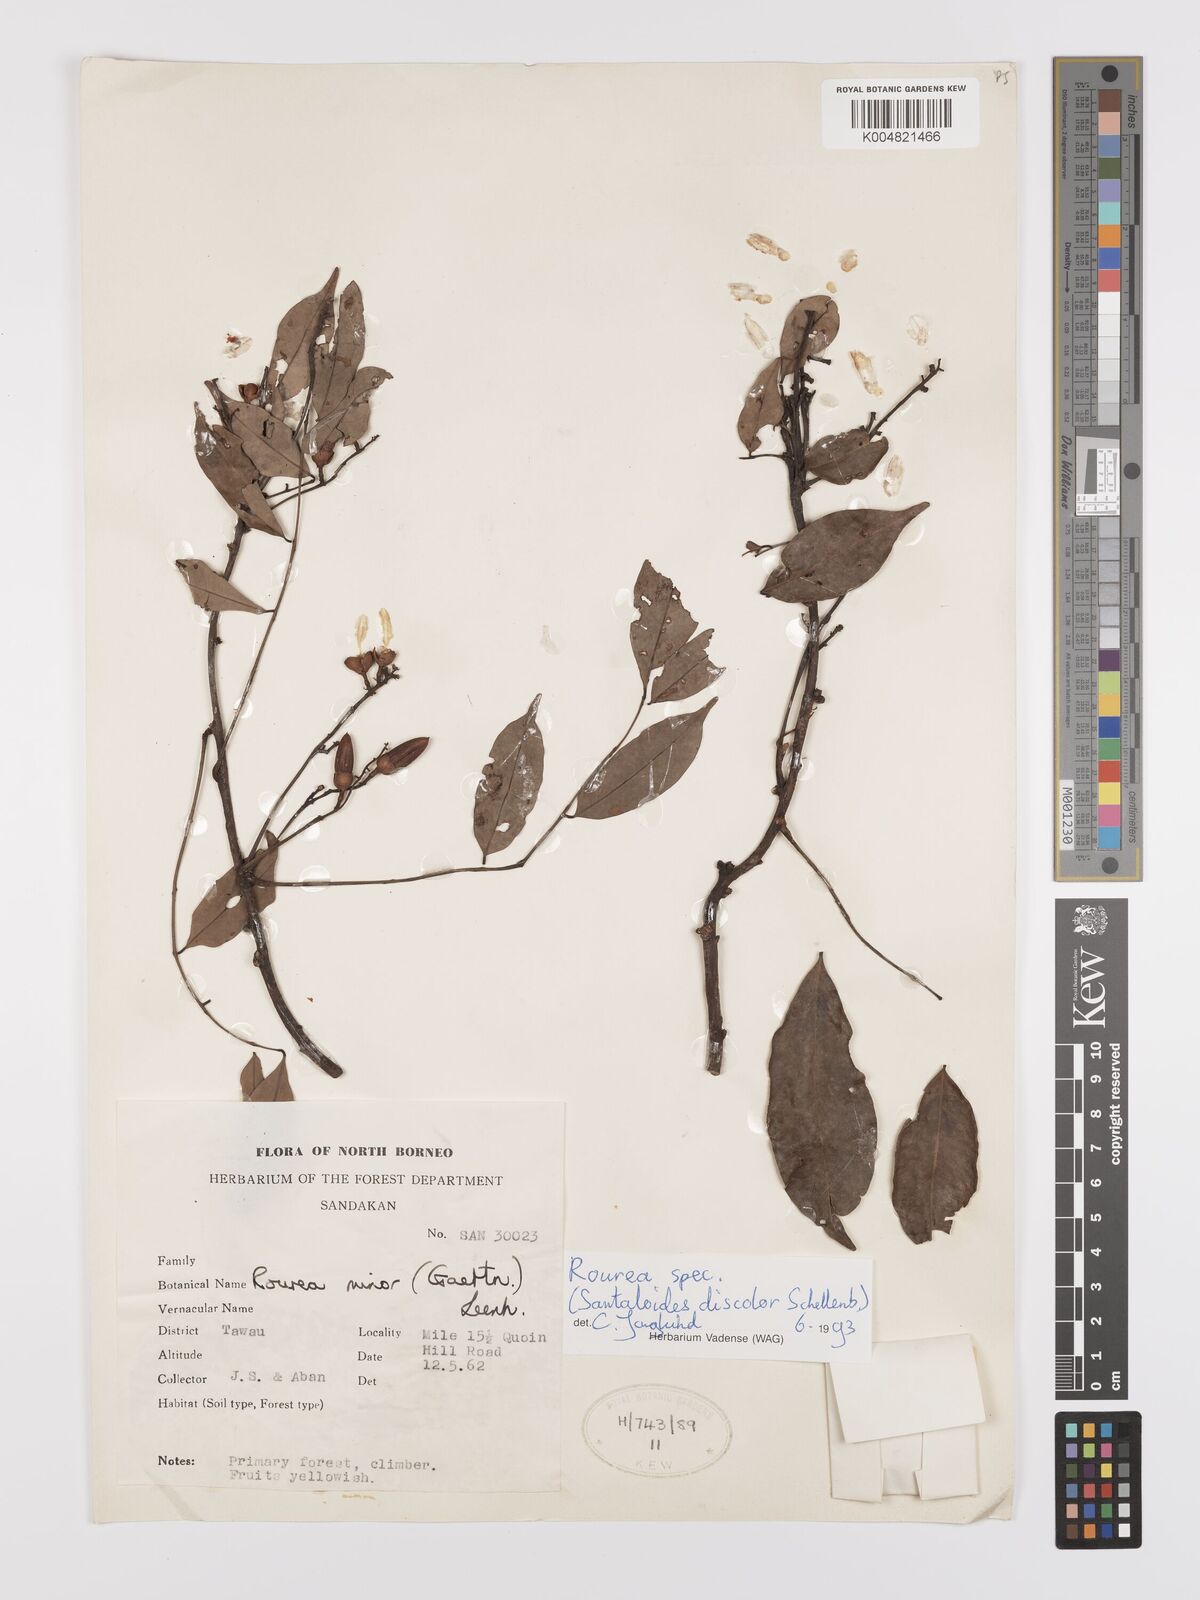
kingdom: Plantae
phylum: Tracheophyta
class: Magnoliopsida
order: Oxalidales
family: Connaraceae
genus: Rourea
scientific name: Rourea
